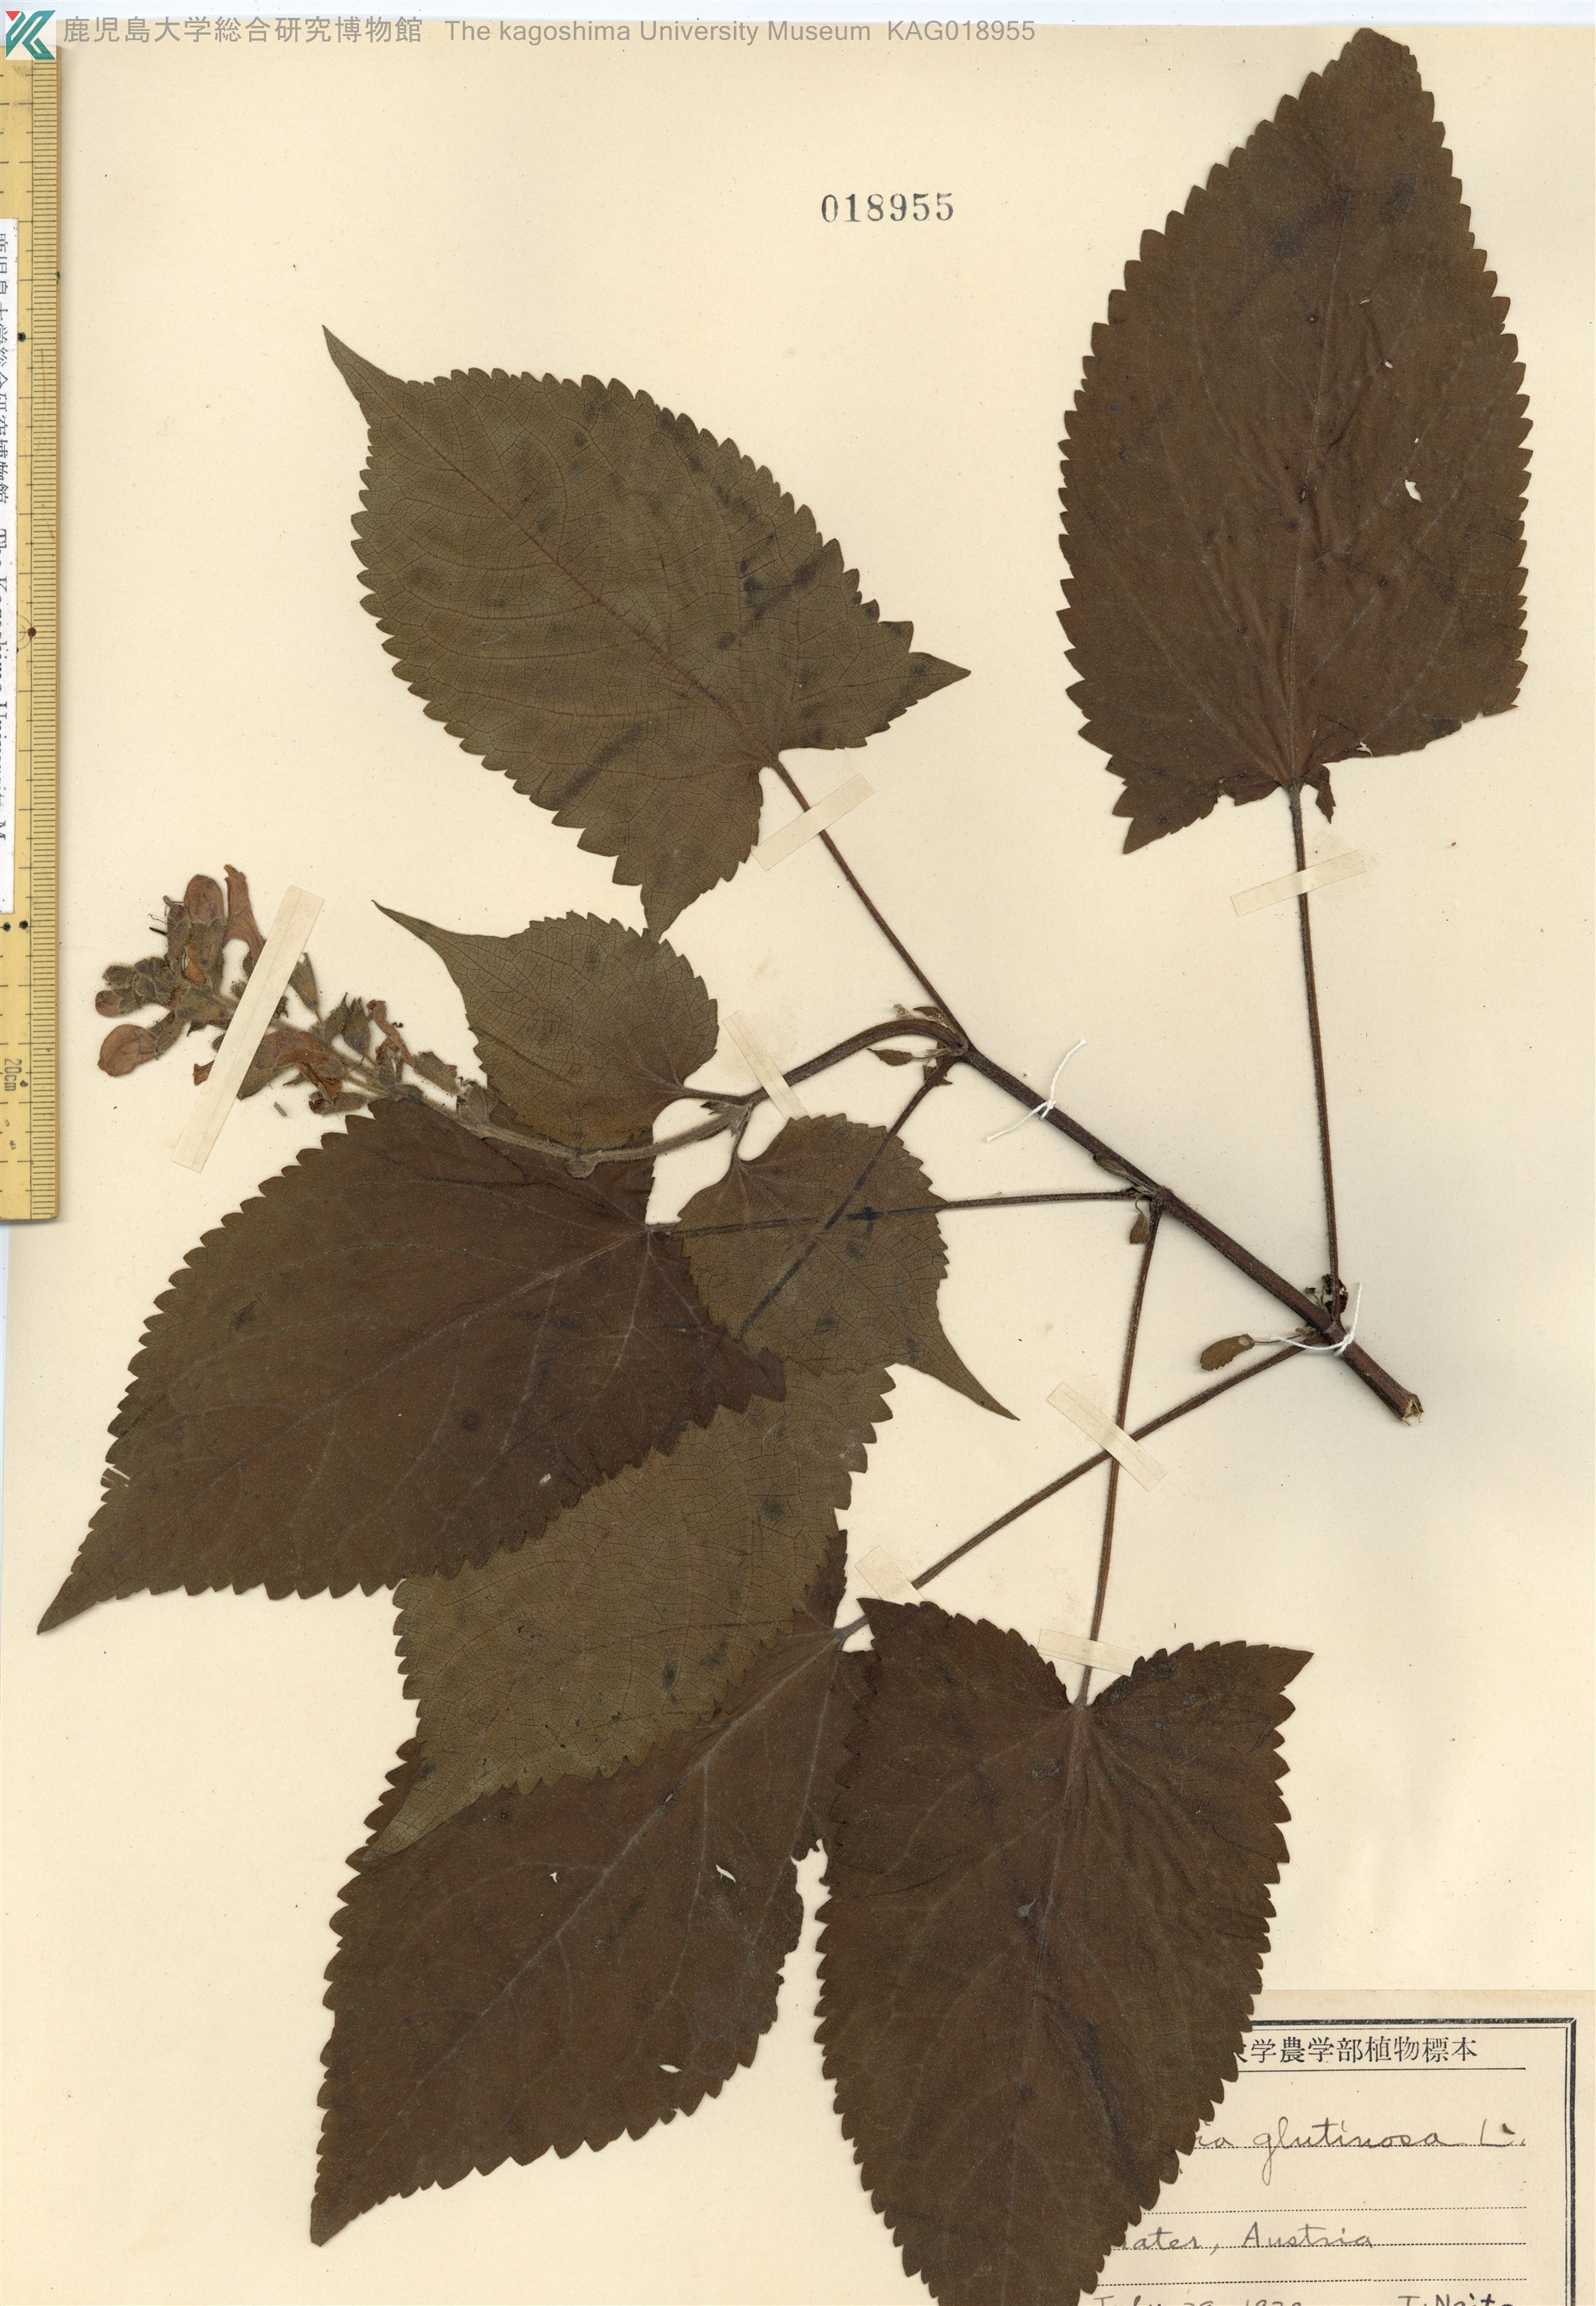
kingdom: Plantae
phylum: Tracheophyta
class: Magnoliopsida
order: Lamiales
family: Lamiaceae
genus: Salvia
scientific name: Salvia glutinosa
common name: Sticky clary
